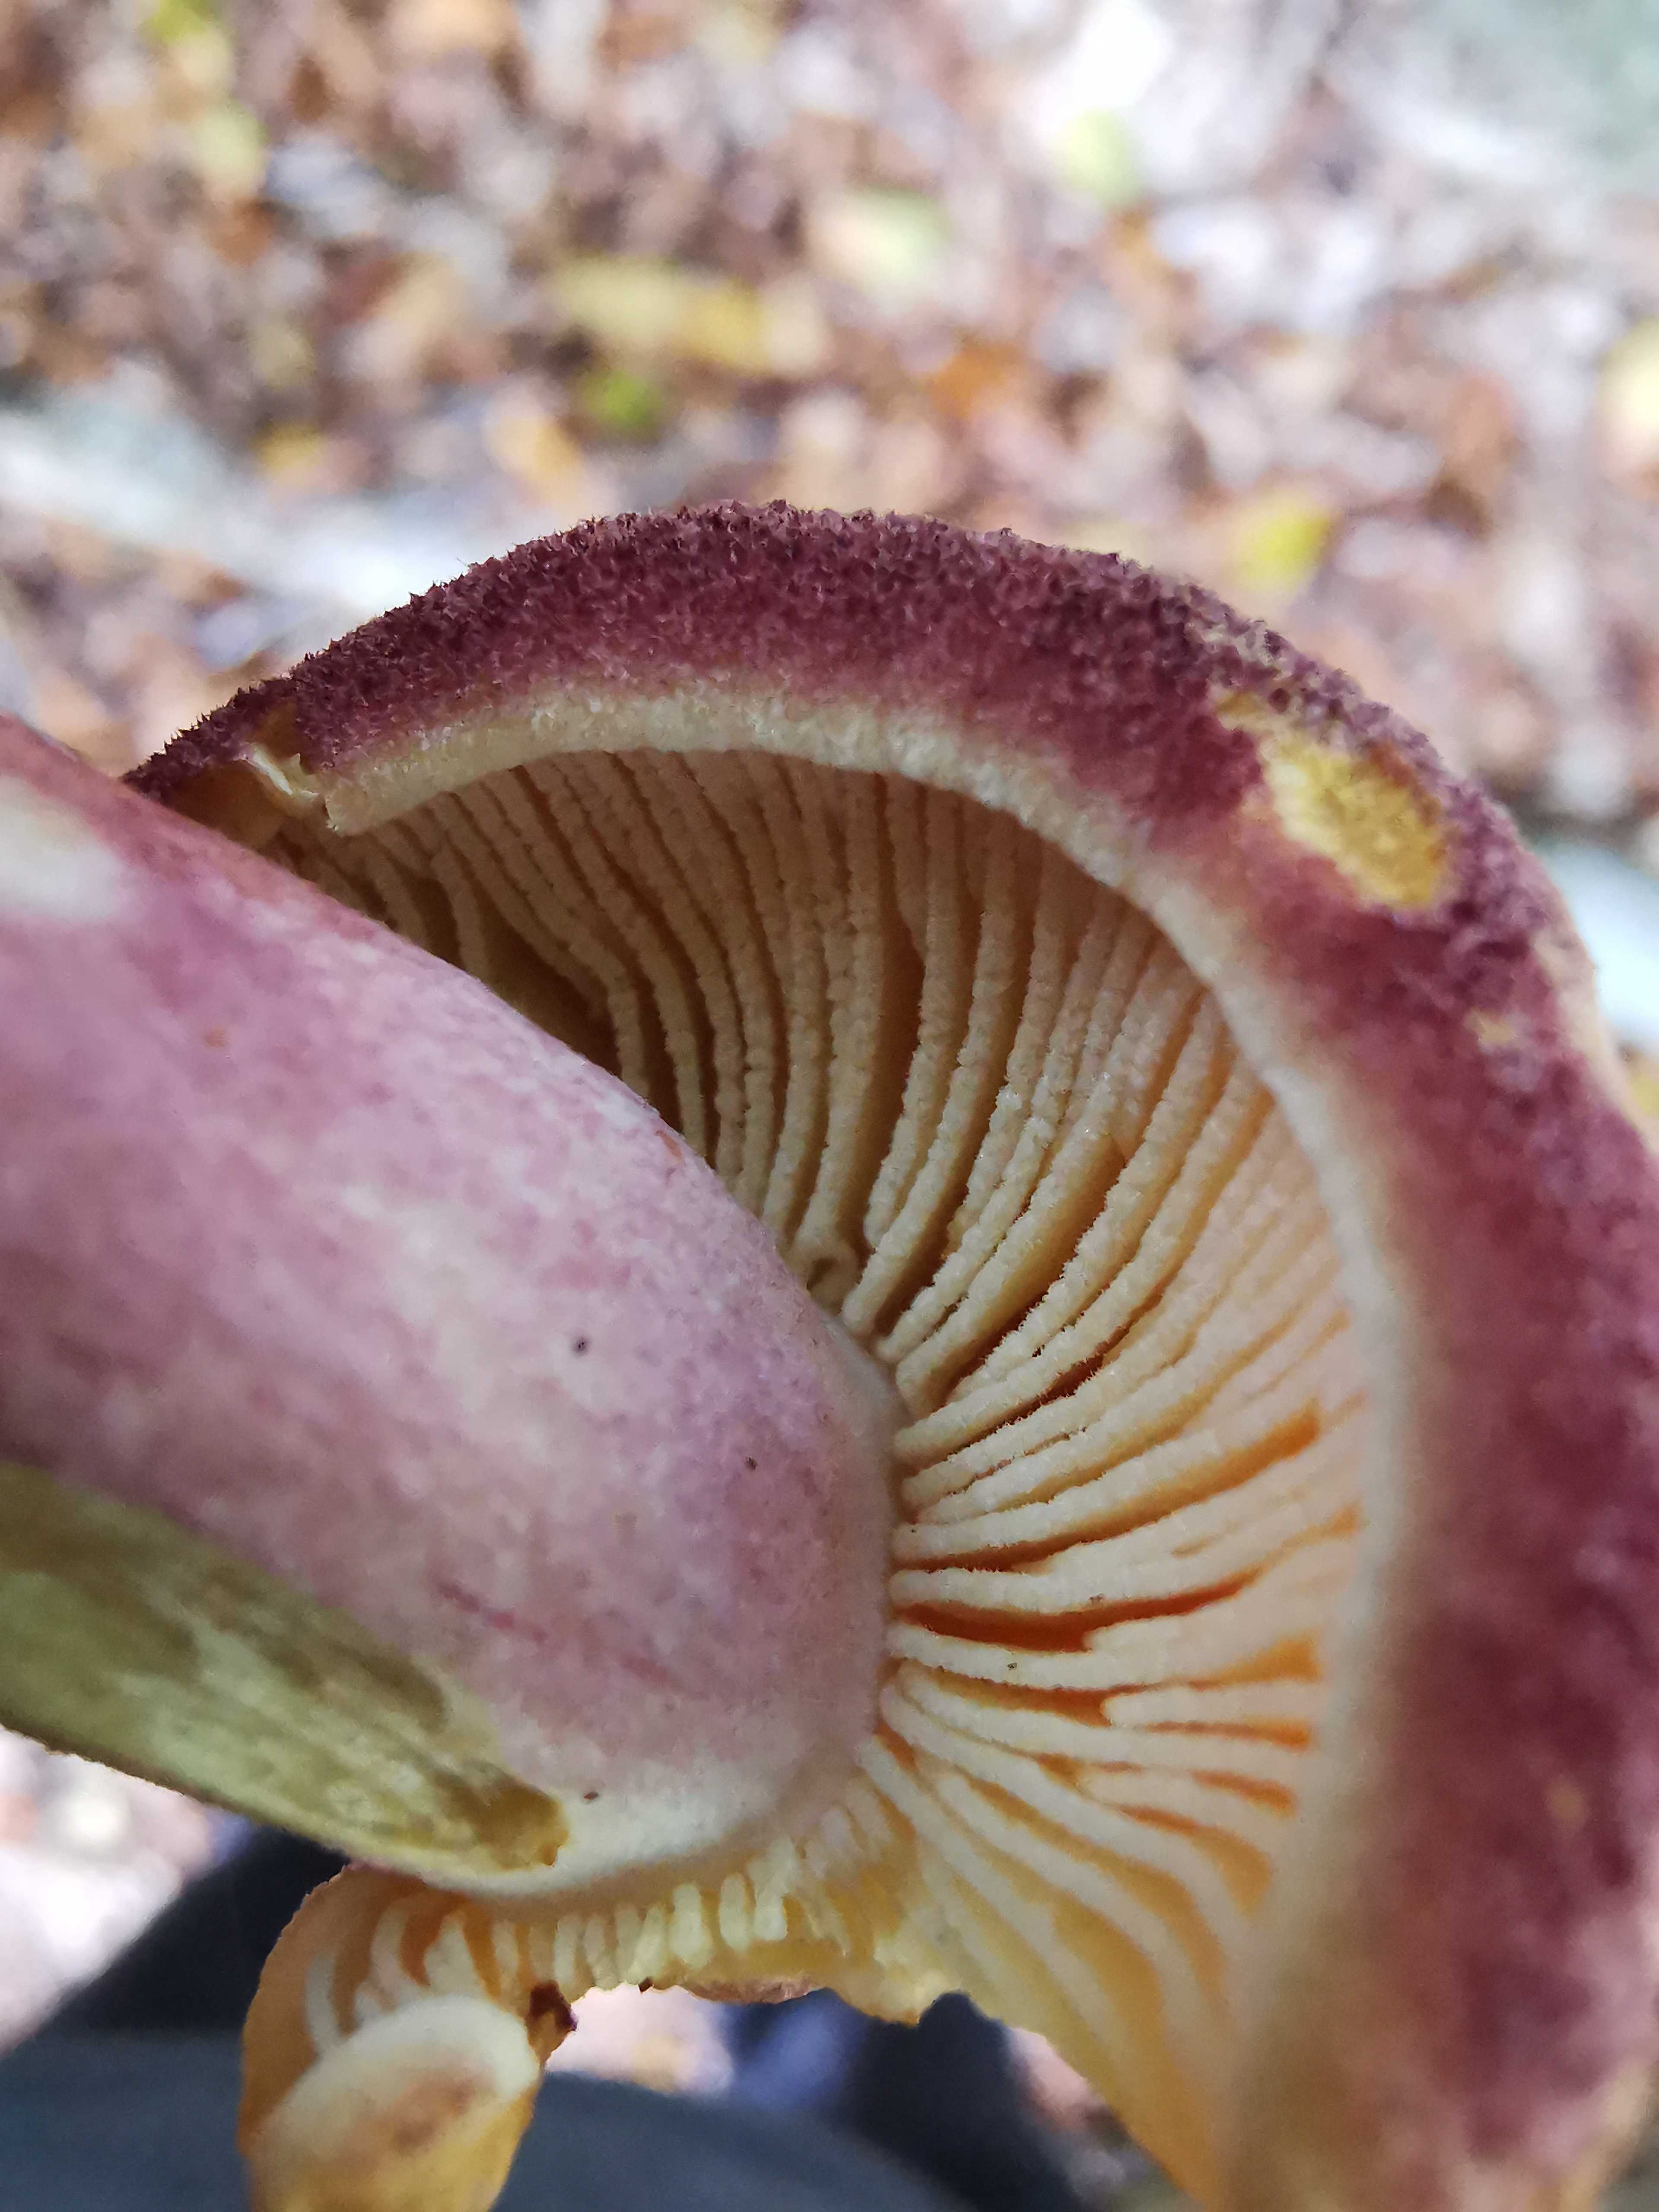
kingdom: Fungi
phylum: Basidiomycota
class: Agaricomycetes
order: Agaricales
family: Tricholomataceae
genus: Tricholomopsis
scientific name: Tricholomopsis rutilans
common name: purpur-væbnerhat
